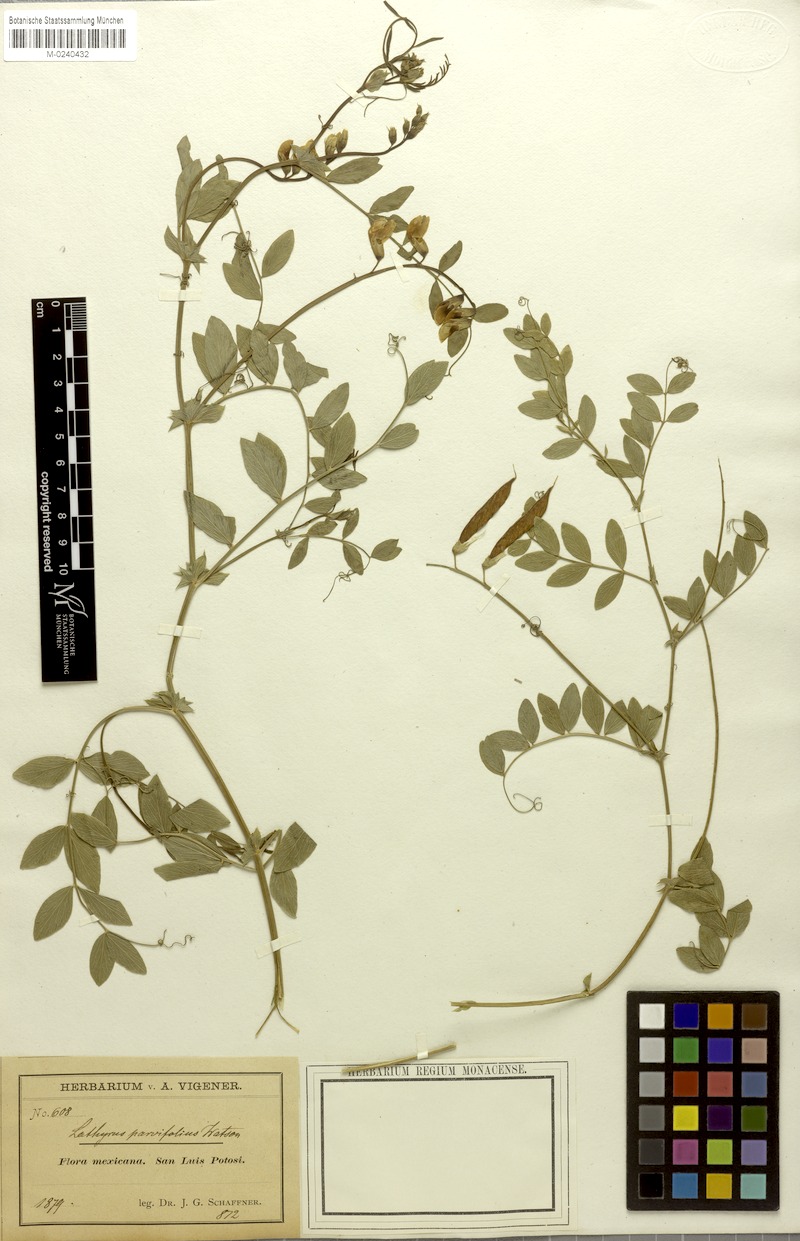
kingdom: Plantae
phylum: Tracheophyta
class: Magnoliopsida
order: Fabales
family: Fabaceae
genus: Lathyrus
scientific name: Lathyrus speciosus
